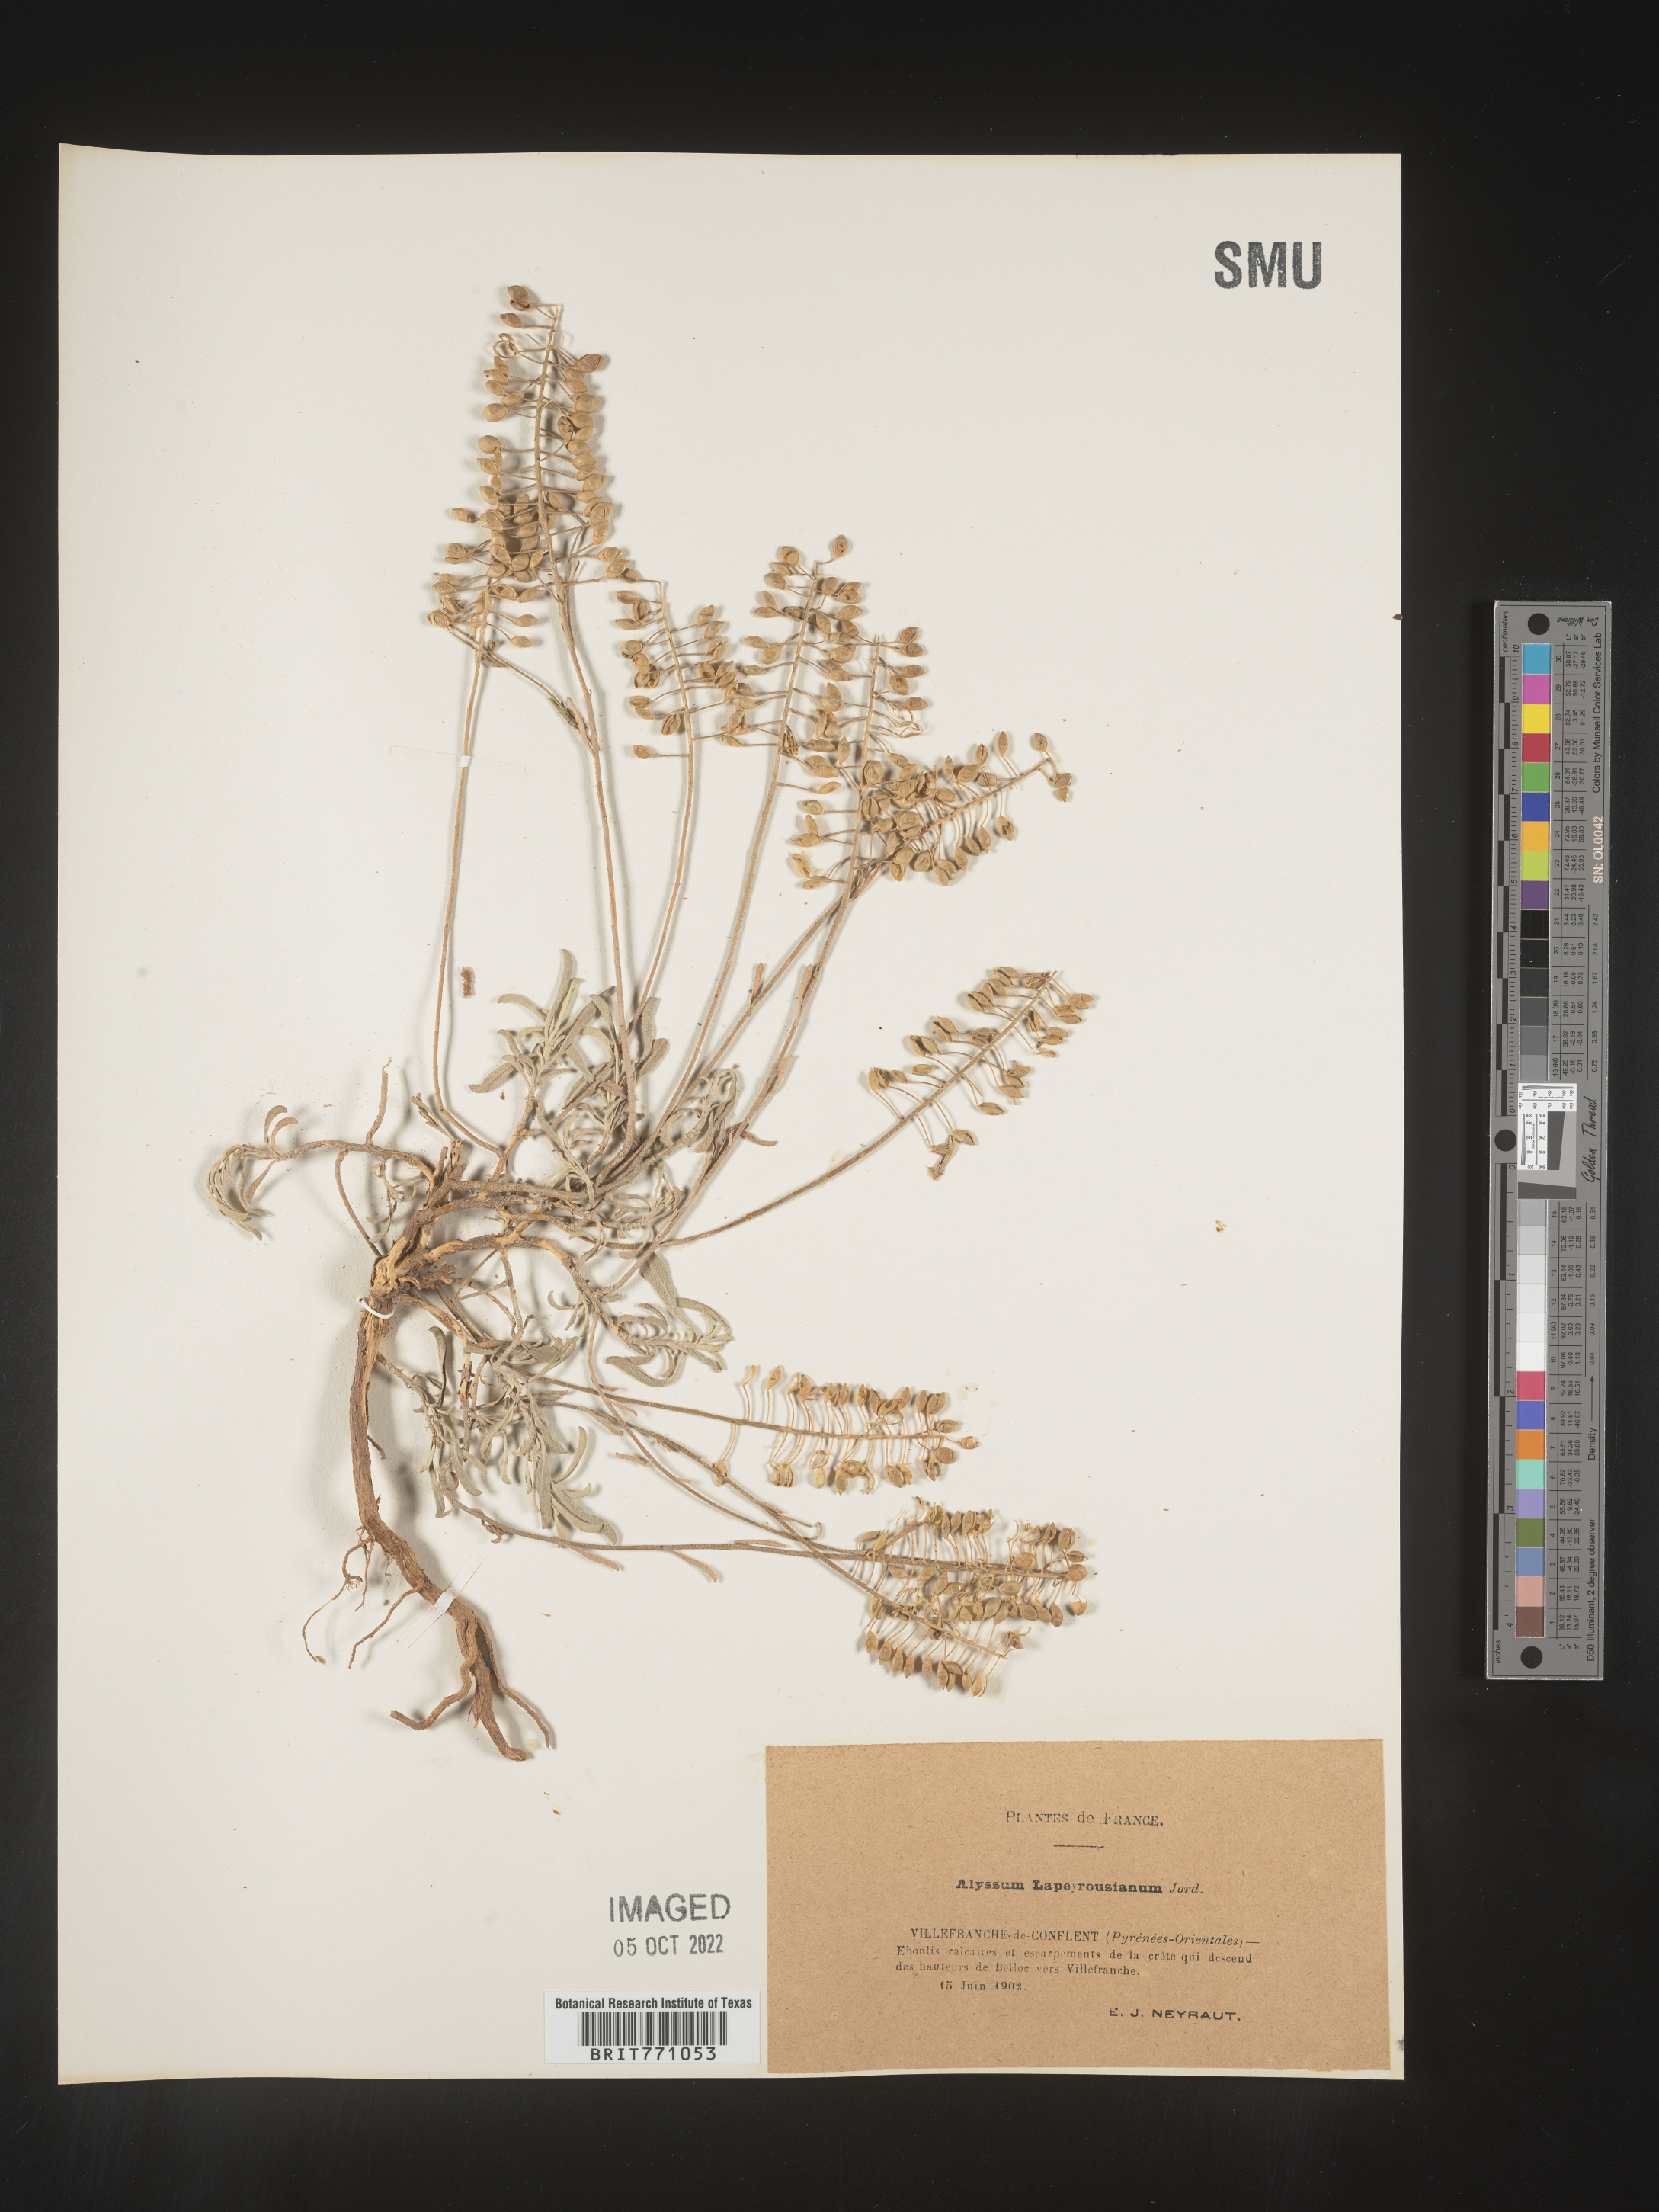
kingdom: Plantae
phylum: Tracheophyta
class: Magnoliopsida
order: Brassicales
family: Brassicaceae
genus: Alyssum
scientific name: Alyssum
